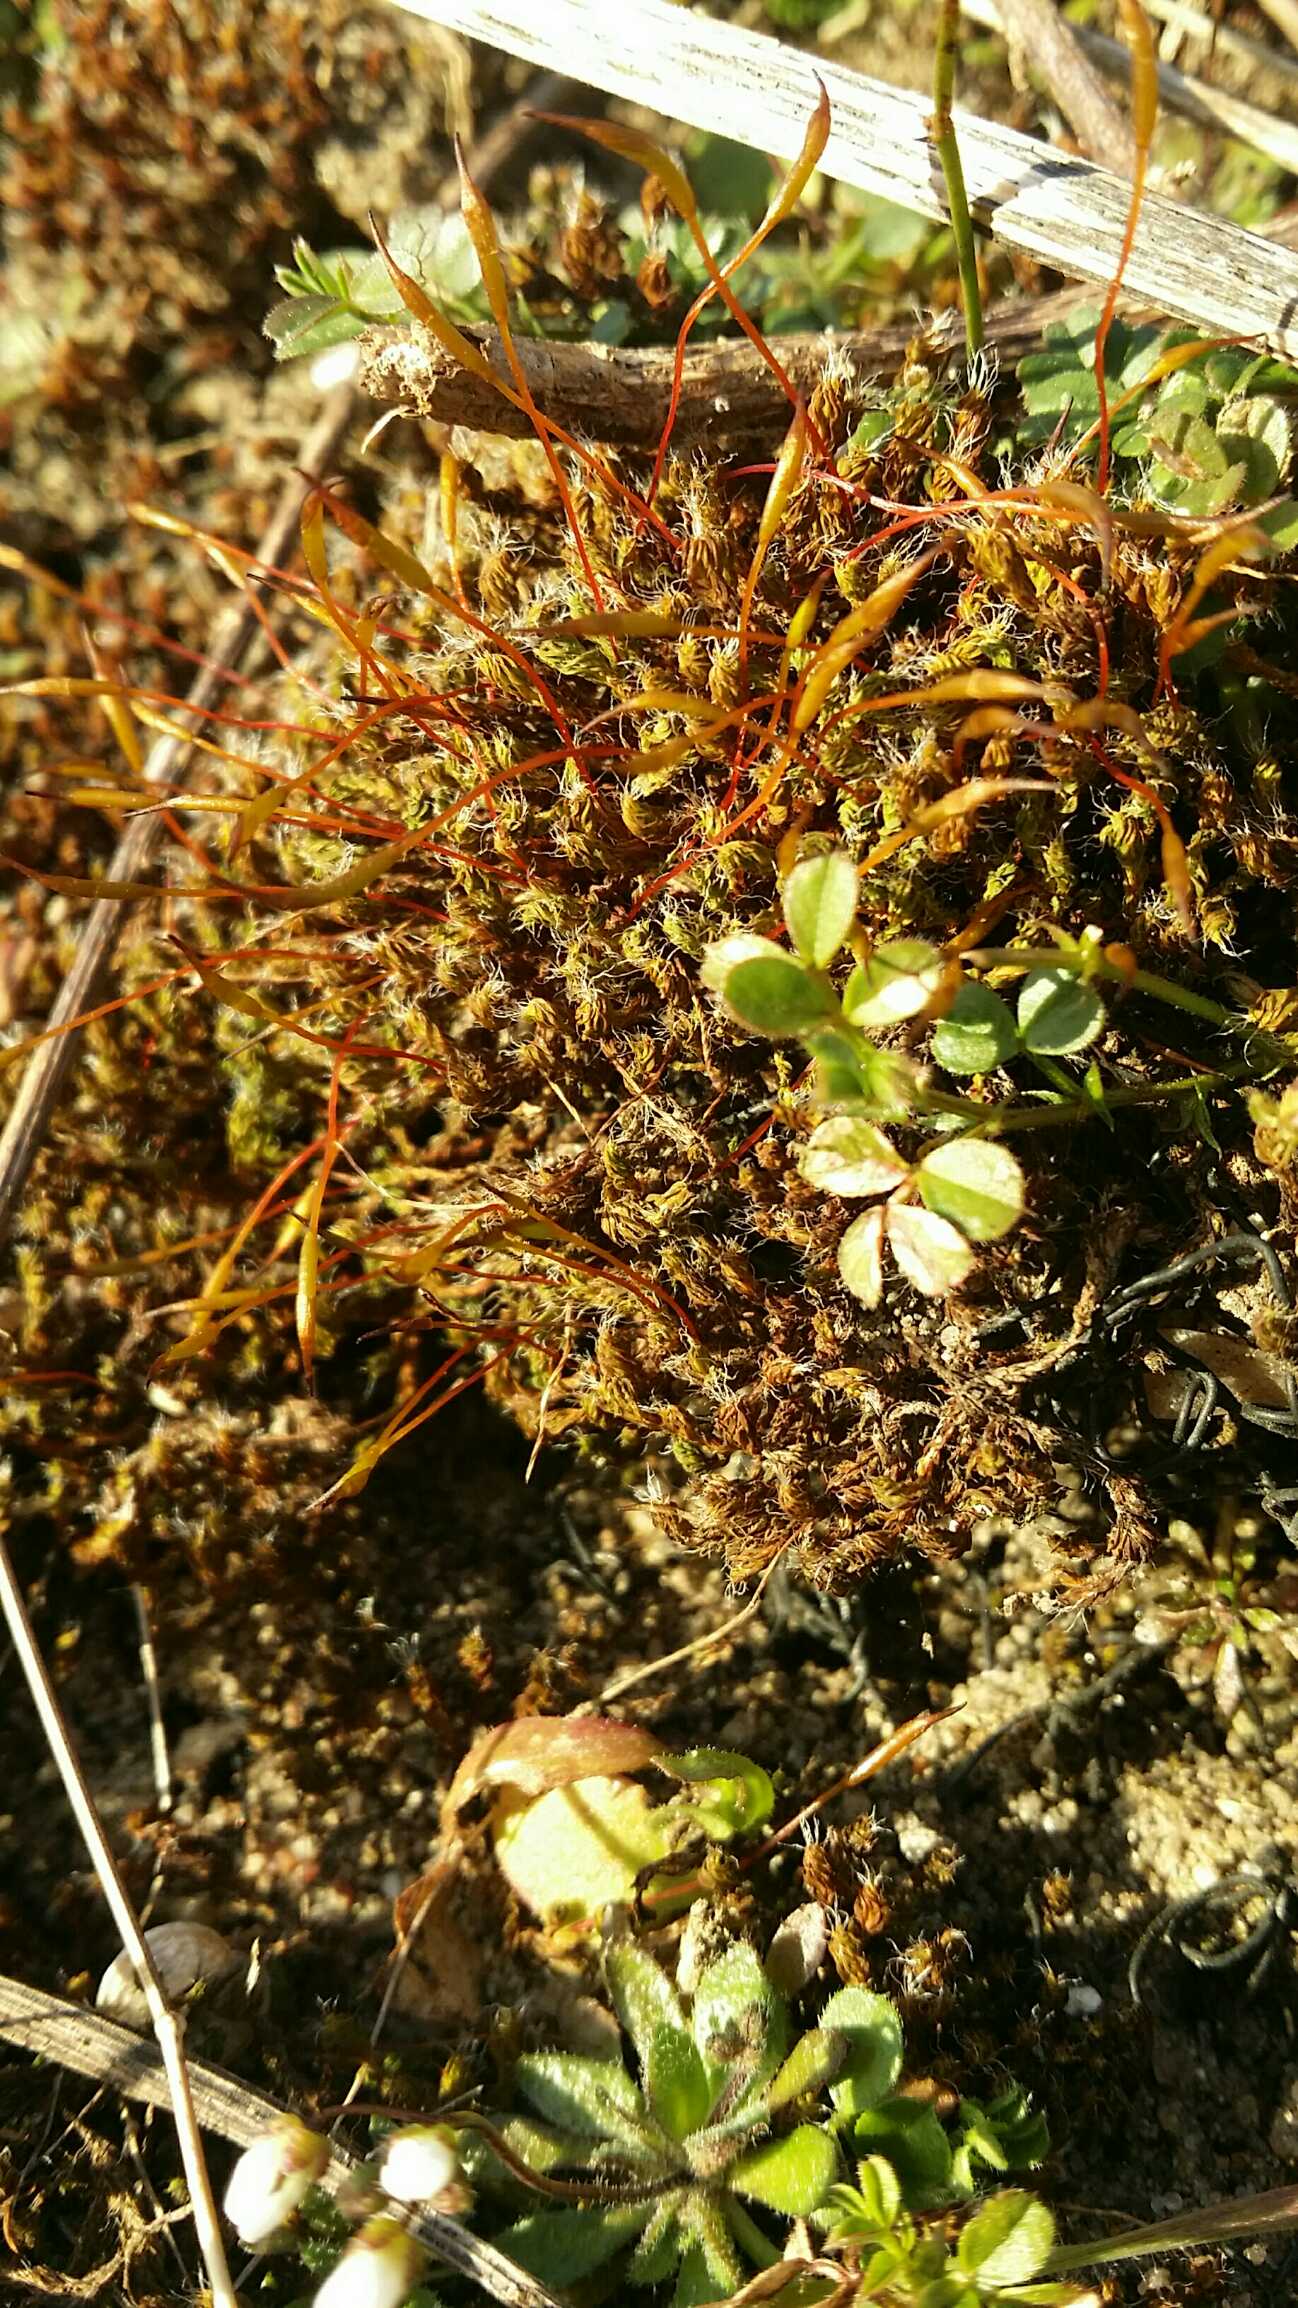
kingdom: Plantae
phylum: Bryophyta
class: Bryopsida
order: Pottiales
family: Pottiaceae
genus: Syntrichia
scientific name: Syntrichia
